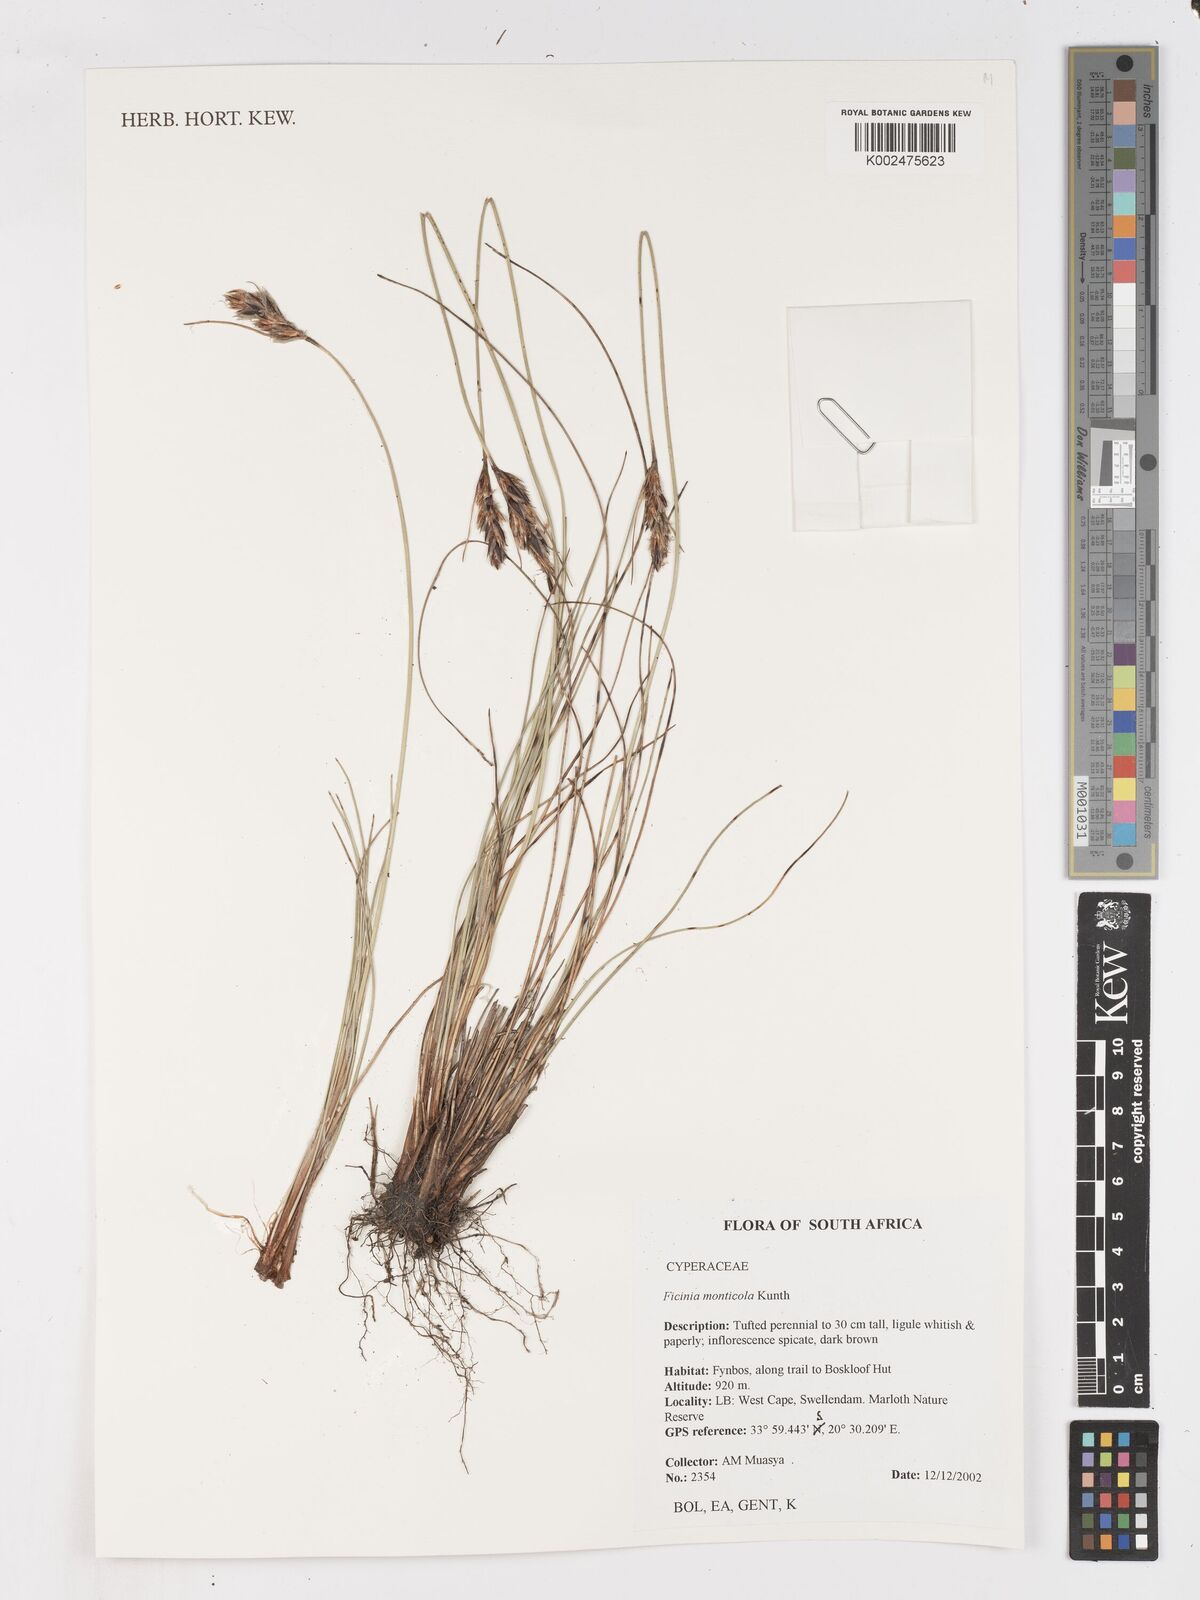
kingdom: Plantae
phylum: Tracheophyta
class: Liliopsida
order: Poales
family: Cyperaceae
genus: Ficinia
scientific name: Ficinia monticola
